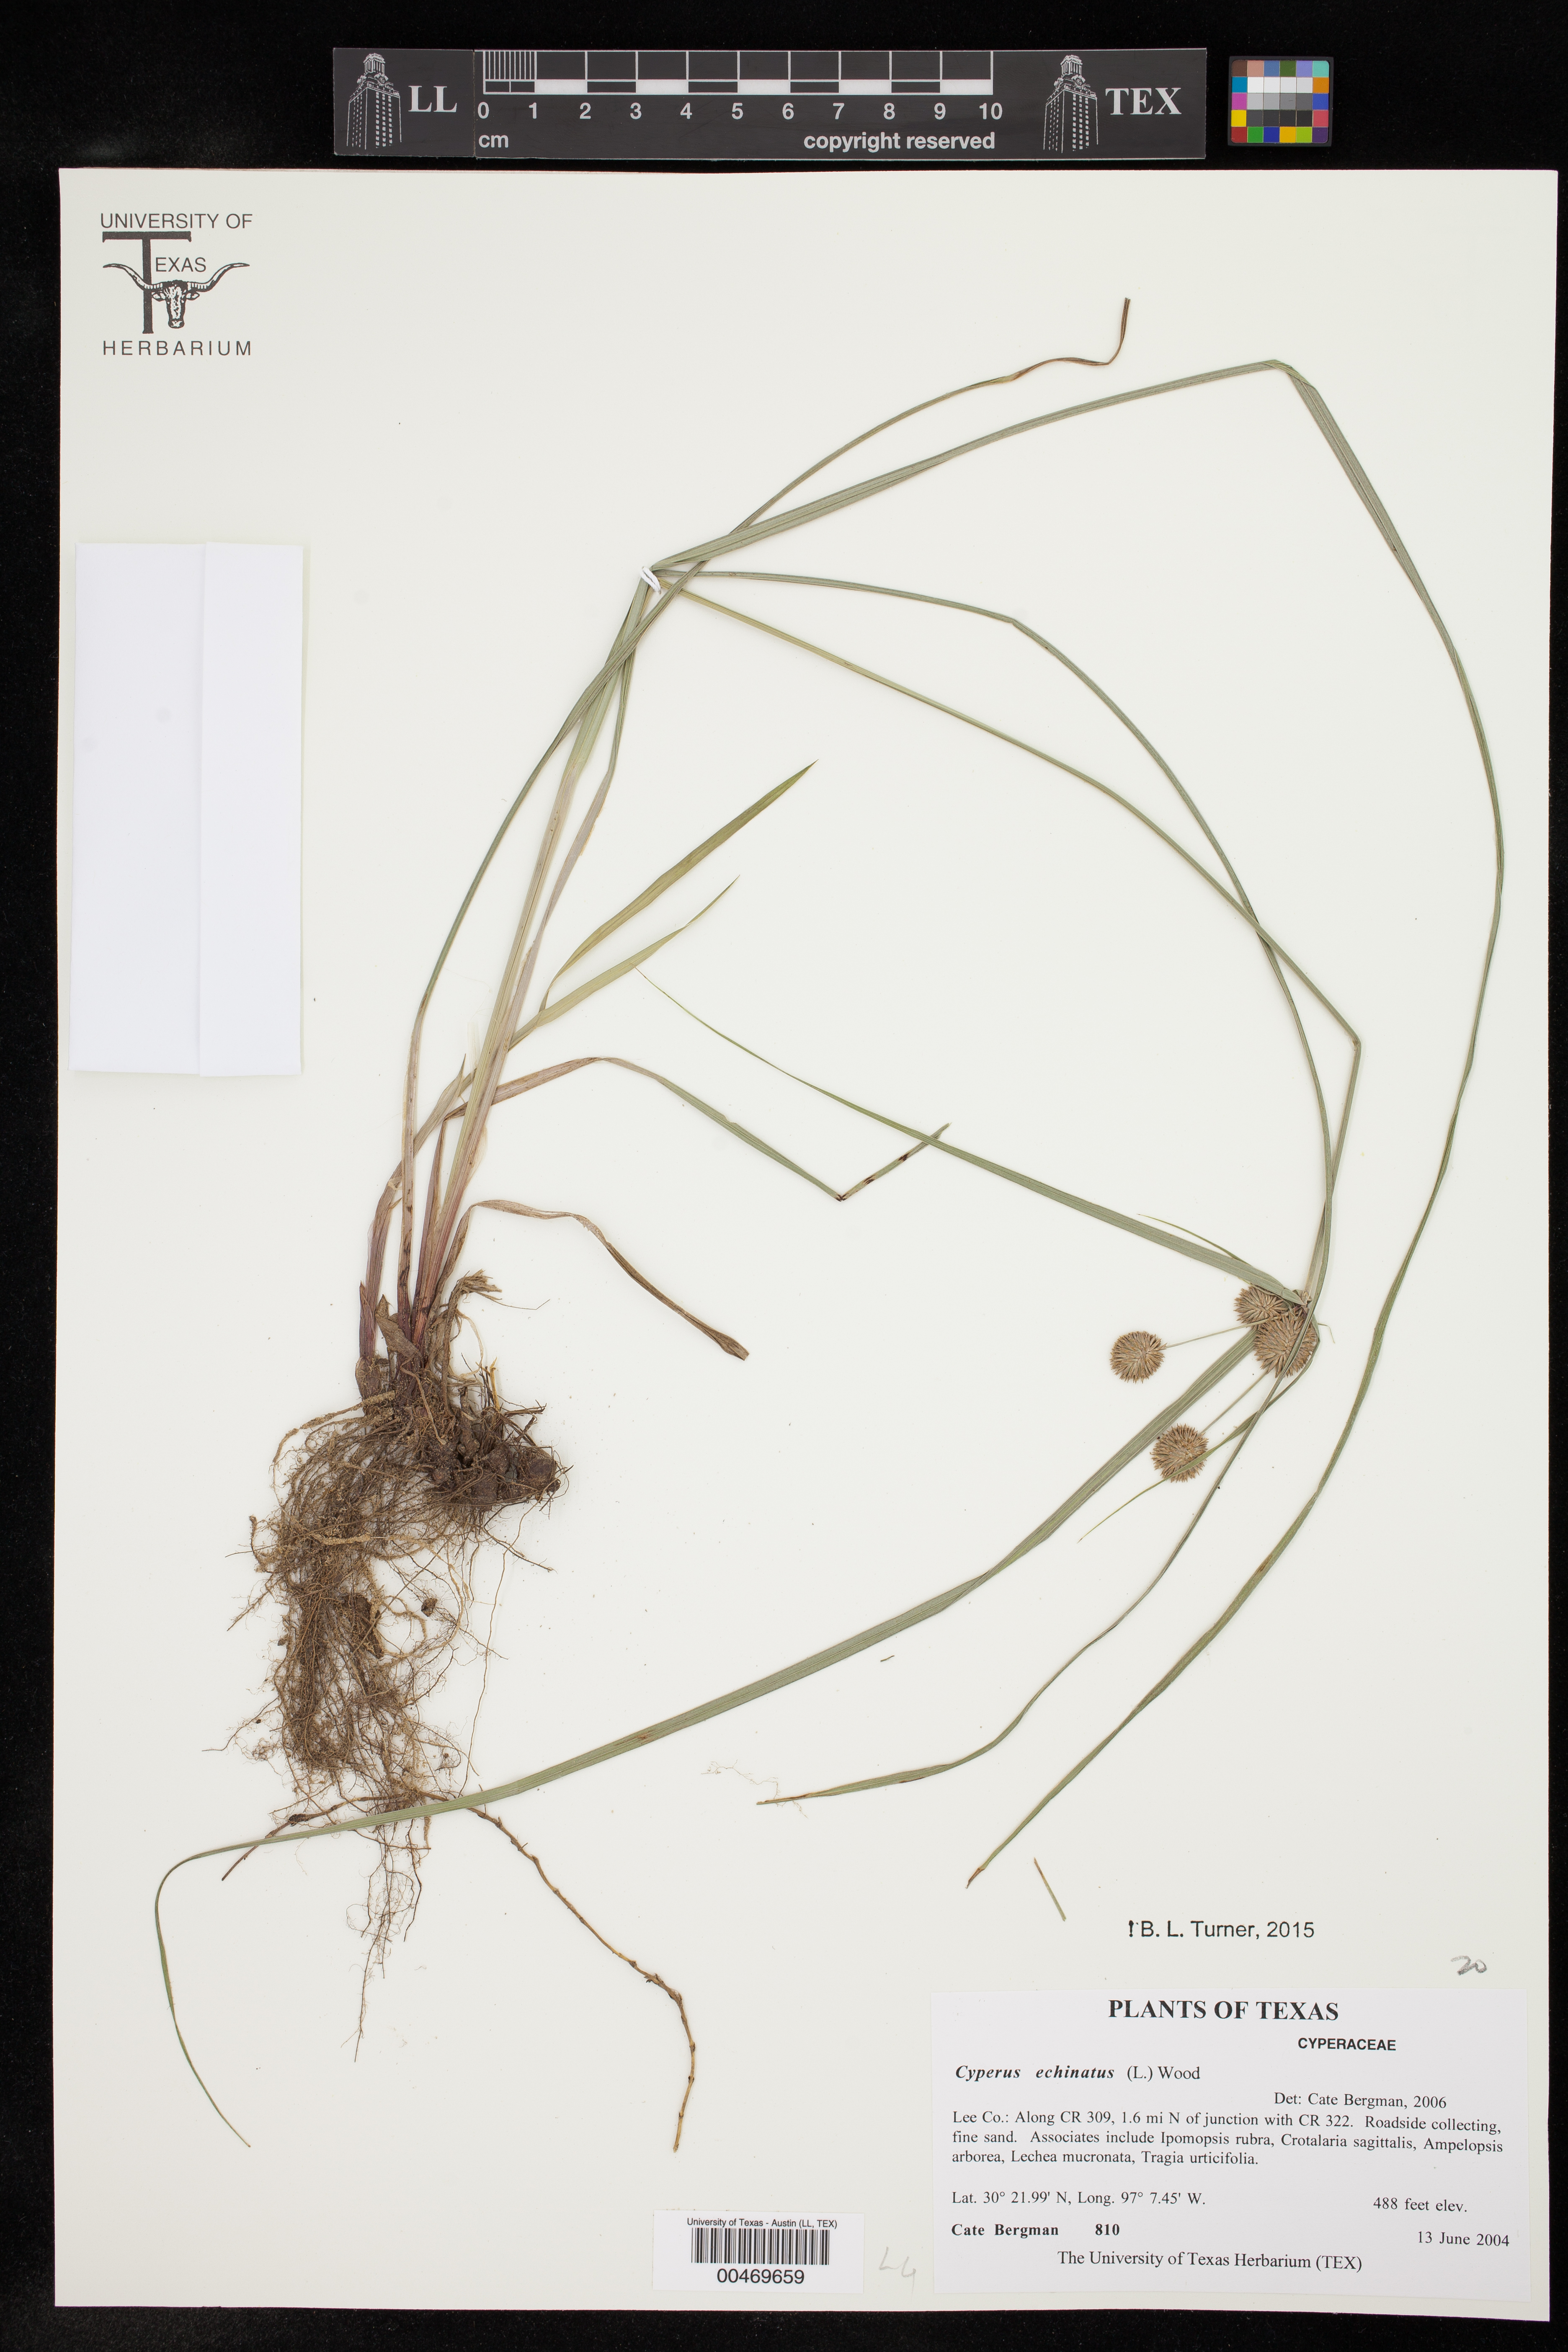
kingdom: Plantae
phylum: Tracheophyta
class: Liliopsida
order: Poales
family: Cyperaceae
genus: Cyperus
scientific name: Cyperus echinatus
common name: Teasel sedge
